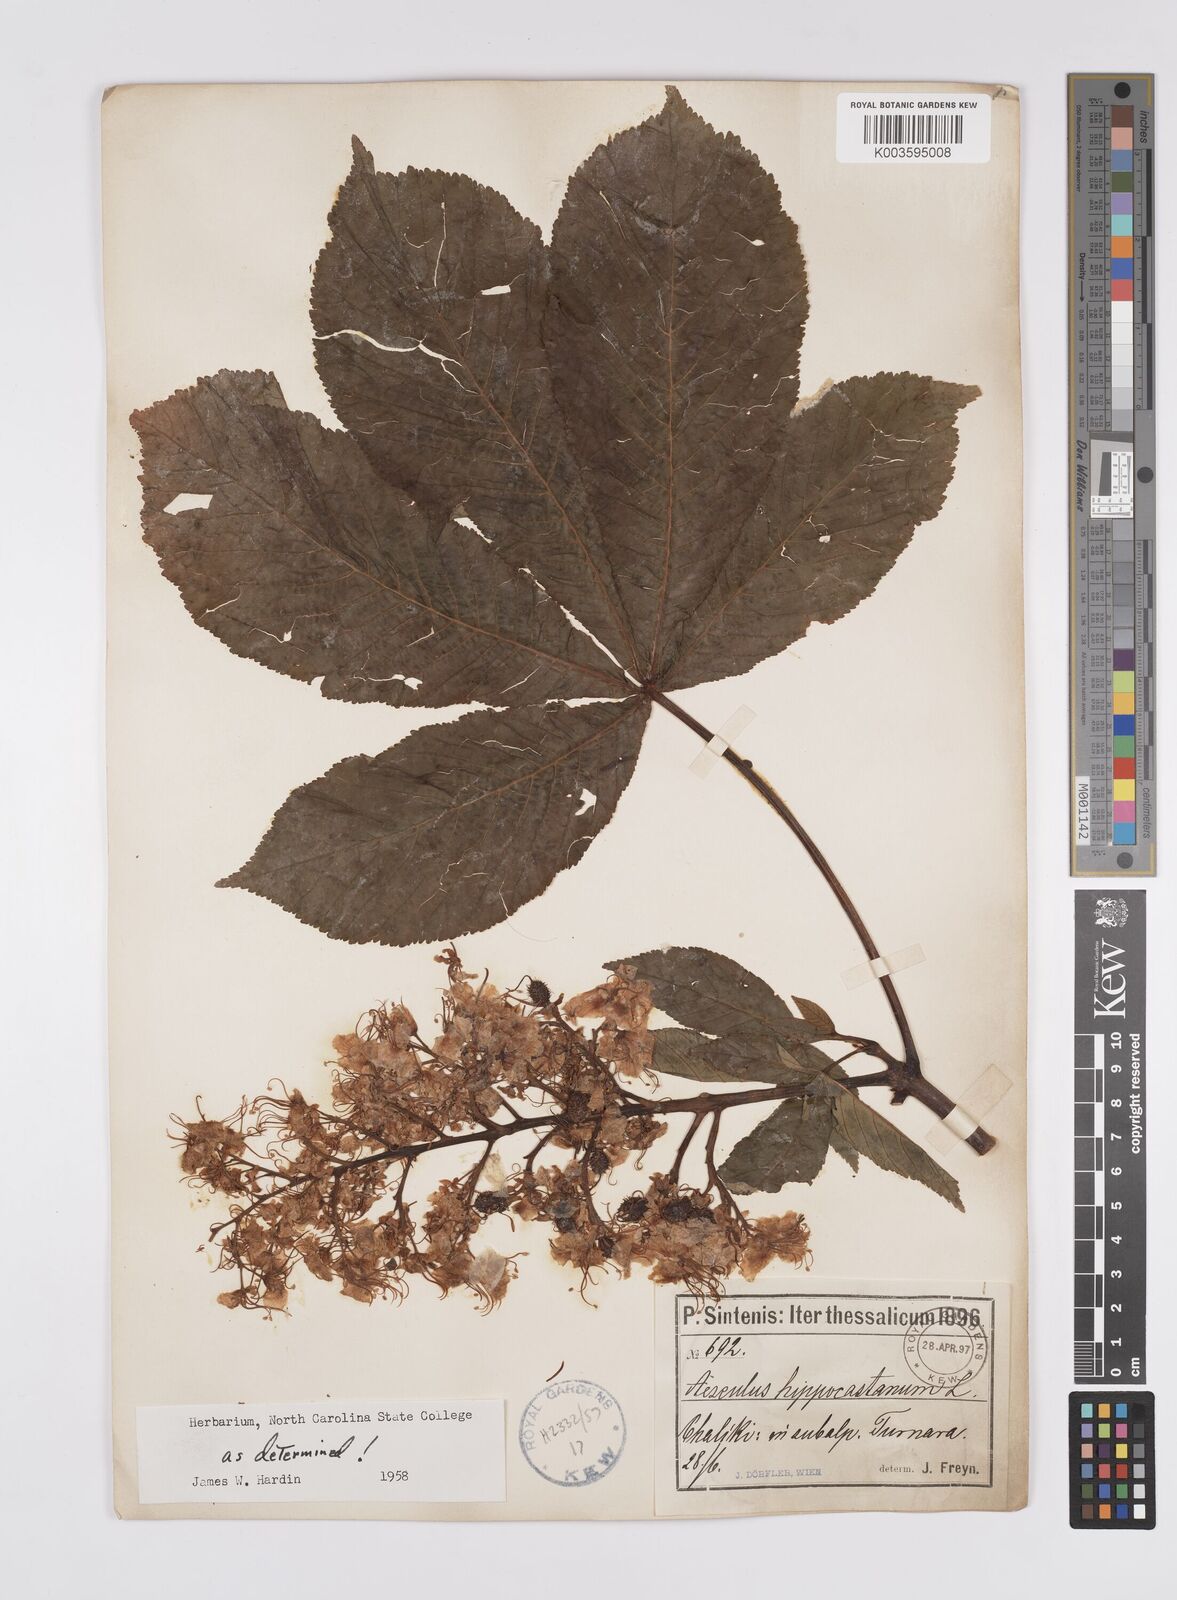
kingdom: Plantae
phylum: Tracheophyta
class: Magnoliopsida
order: Sapindales
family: Sapindaceae
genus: Aesculus
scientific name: Aesculus hippocastanum
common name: Horse-chestnut
